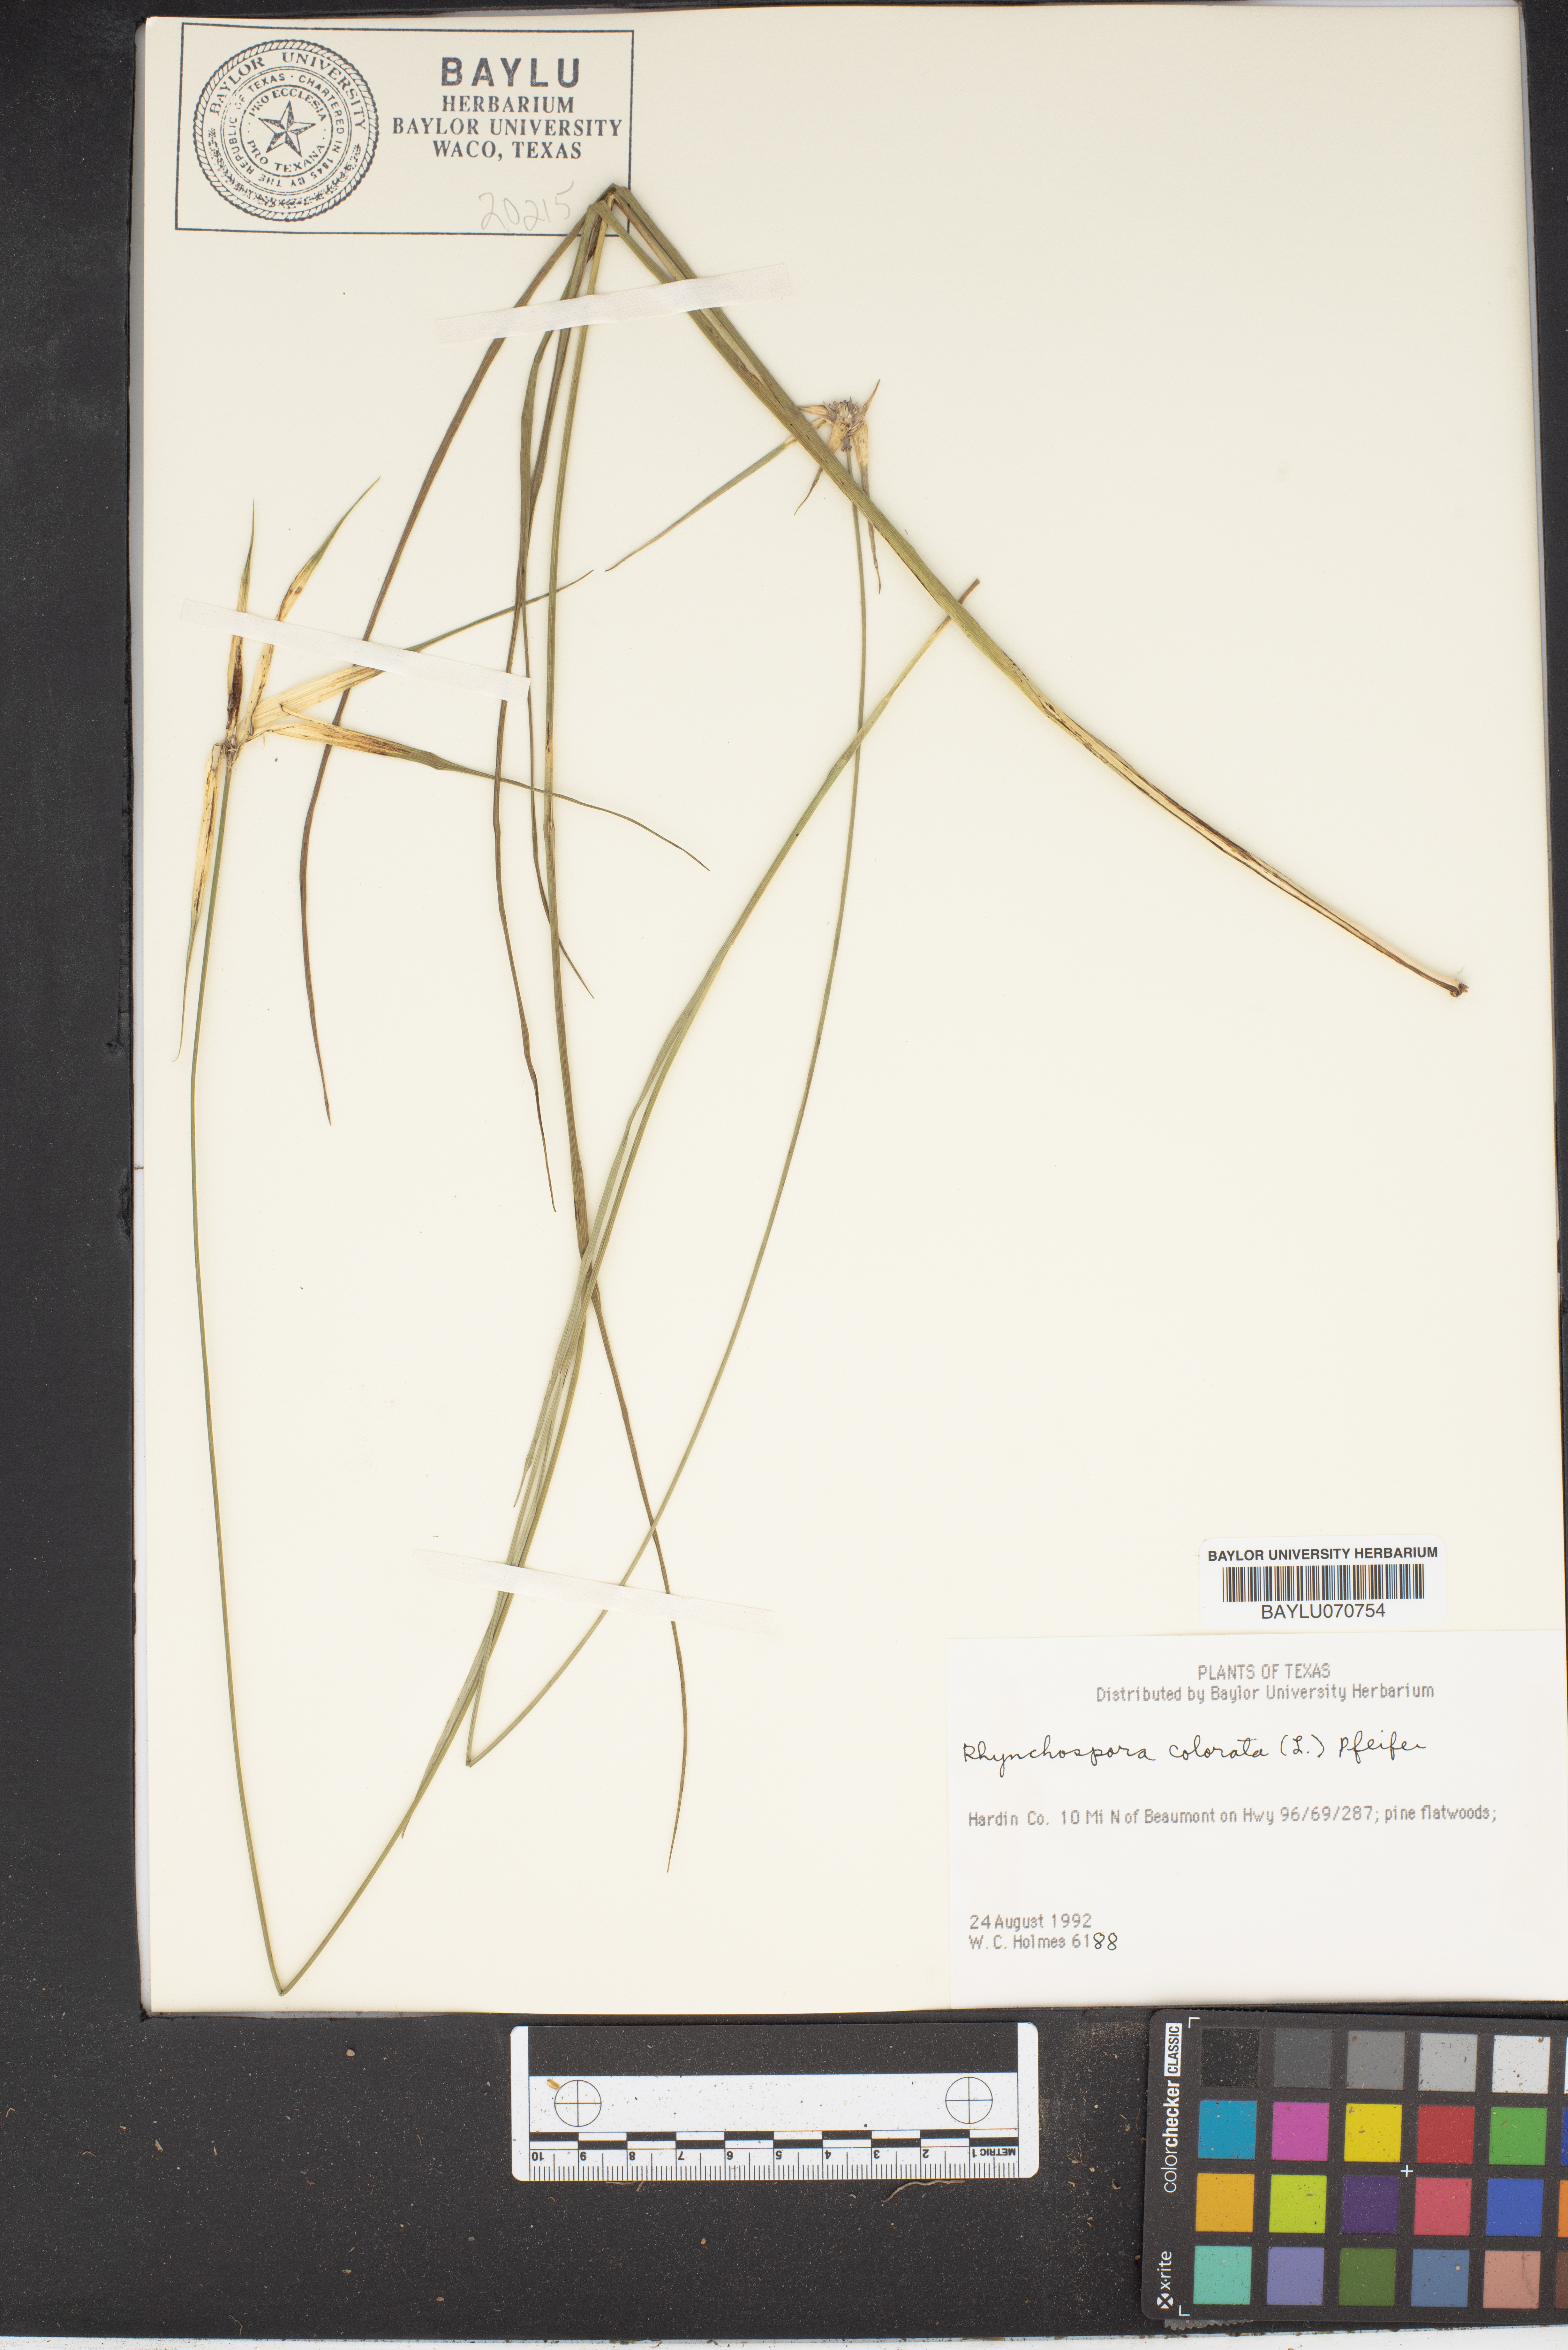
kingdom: Plantae
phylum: Tracheophyta
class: Liliopsida
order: Poales
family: Cyperaceae
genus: Rhynchospora
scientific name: Rhynchospora colorata
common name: Star sedge
